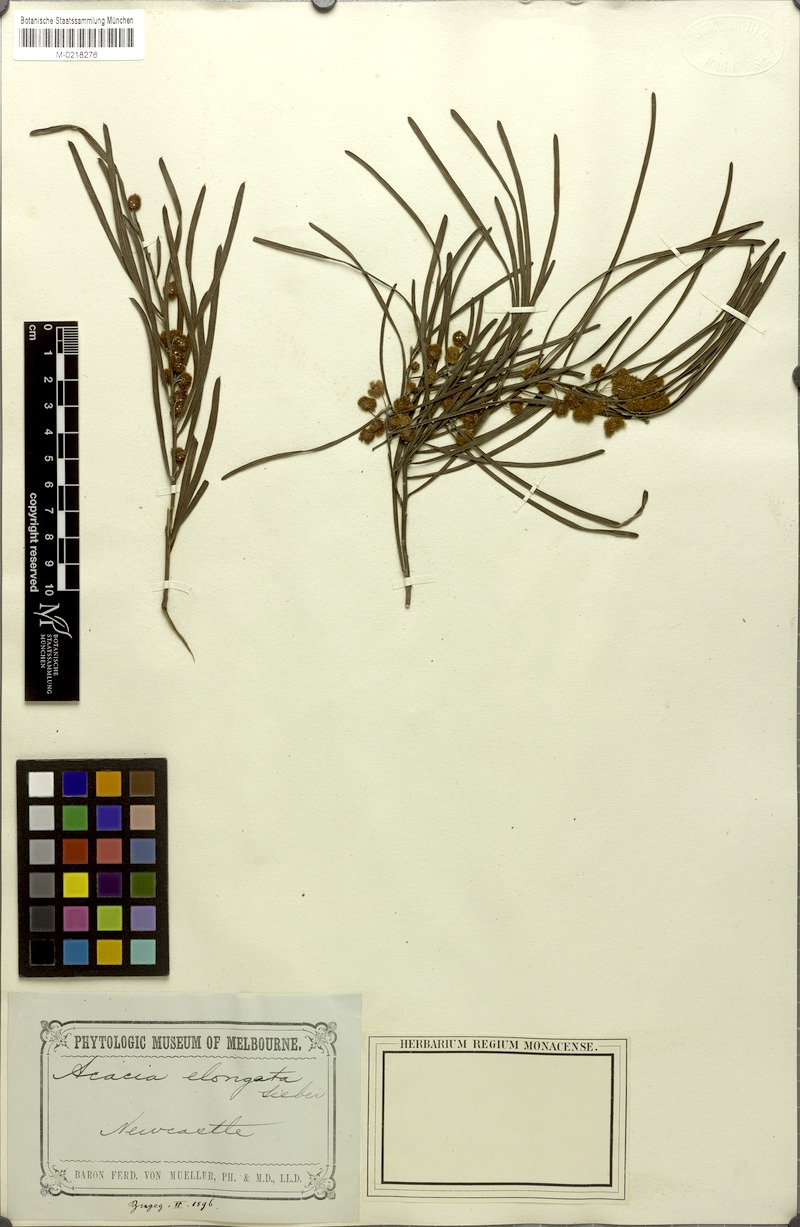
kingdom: Plantae
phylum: Tracheophyta
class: Magnoliopsida
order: Fabales
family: Fabaceae
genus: Acacia
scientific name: Acacia elongata
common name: Swamp wattle
